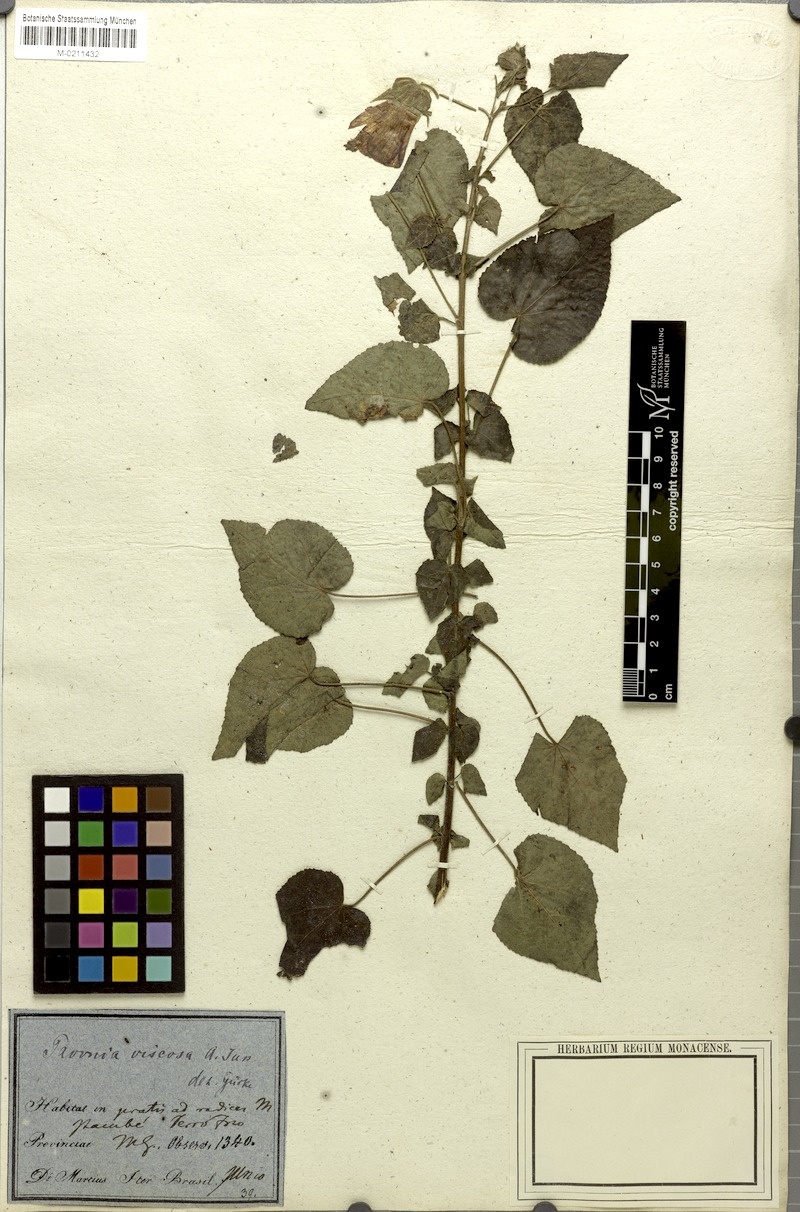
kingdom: Plantae
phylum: Tracheophyta
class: Magnoliopsida
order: Malvales
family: Malvaceae
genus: Pavonia
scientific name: Pavonia viscosa
